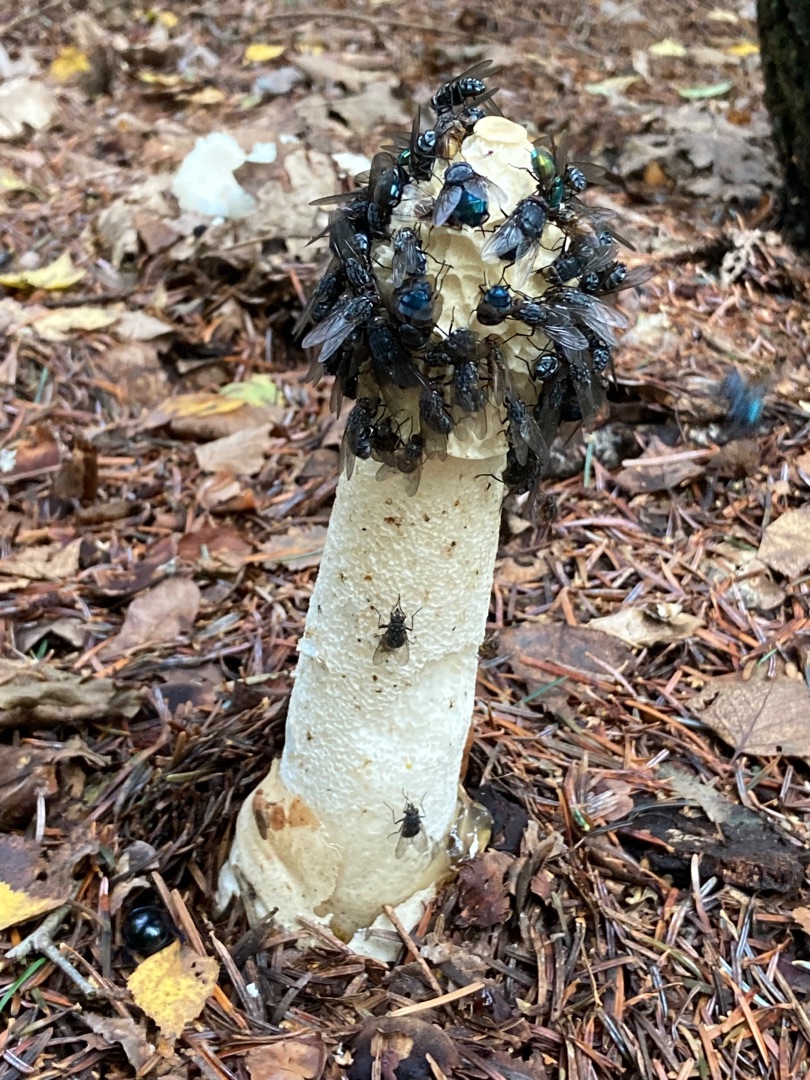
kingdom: Fungi
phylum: Basidiomycota
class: Agaricomycetes
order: Phallales
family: Phallaceae
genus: Phallus
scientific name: Phallus impudicus
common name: Almindelig stinksvamp
